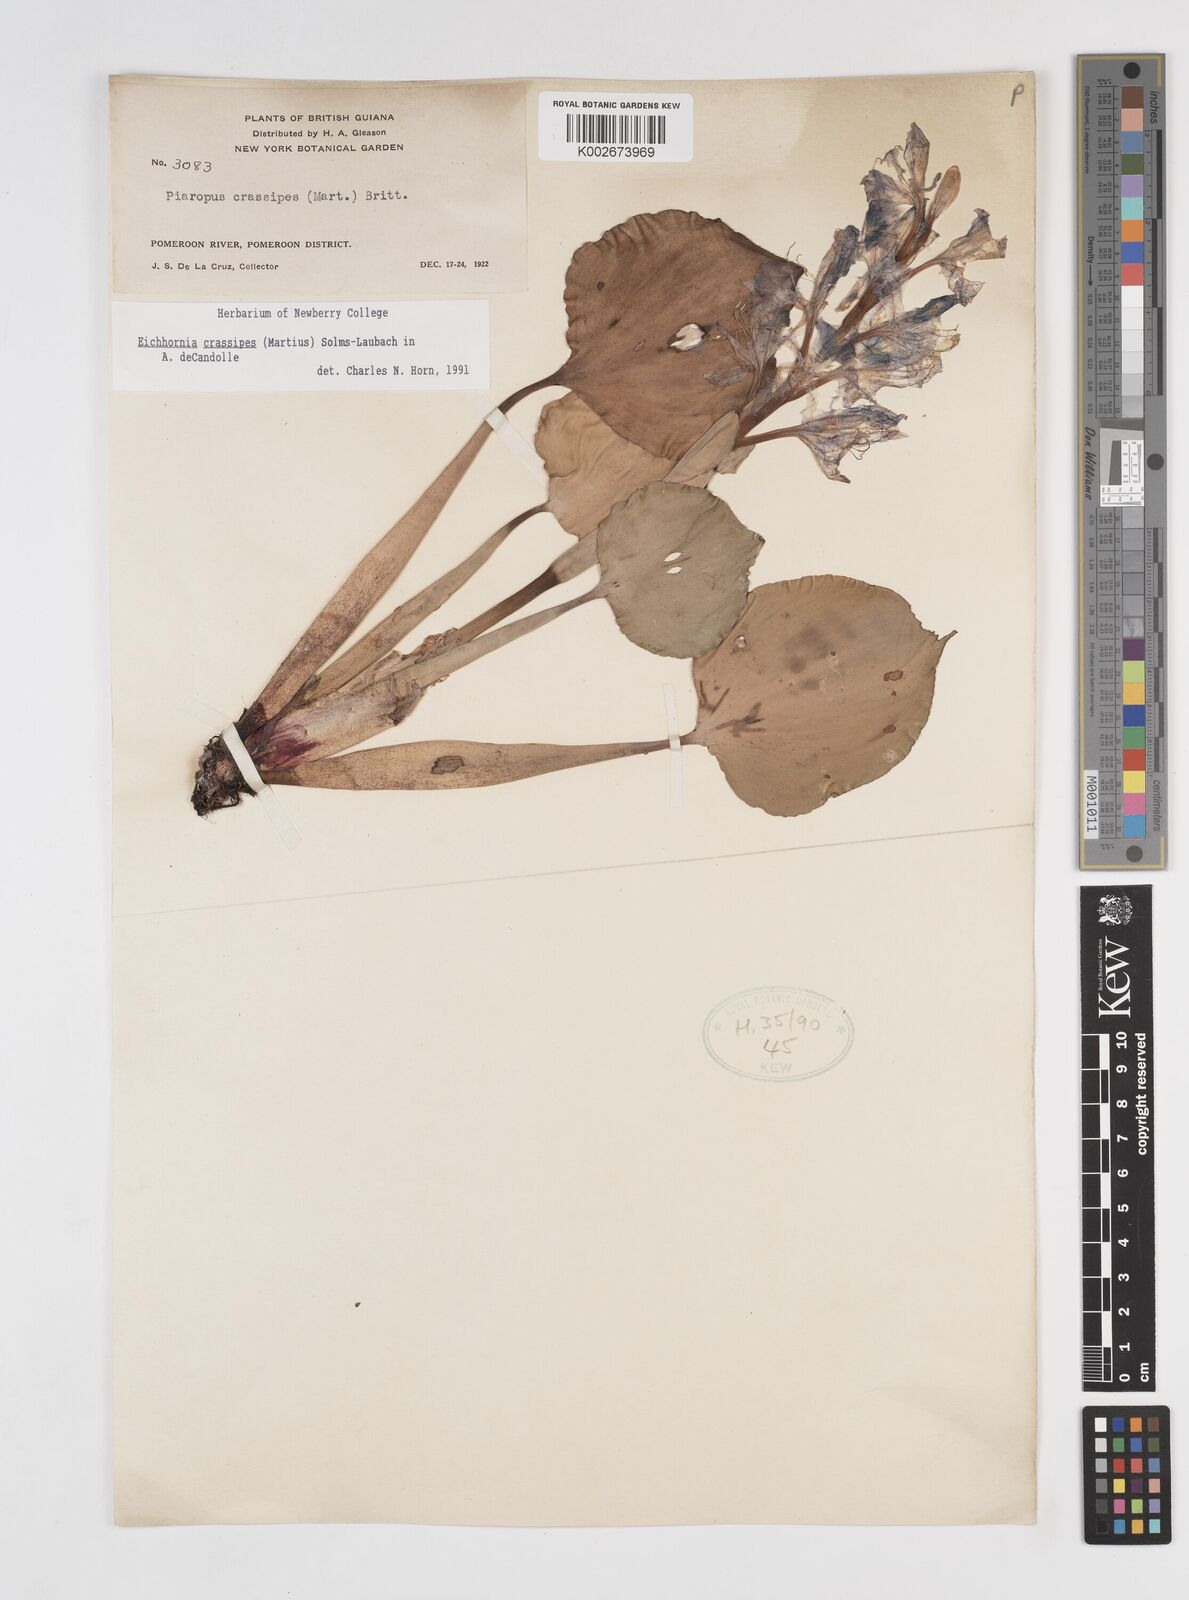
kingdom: Plantae
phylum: Tracheophyta
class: Liliopsida
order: Commelinales
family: Pontederiaceae
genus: Pontederia
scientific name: Pontederia crassipes
